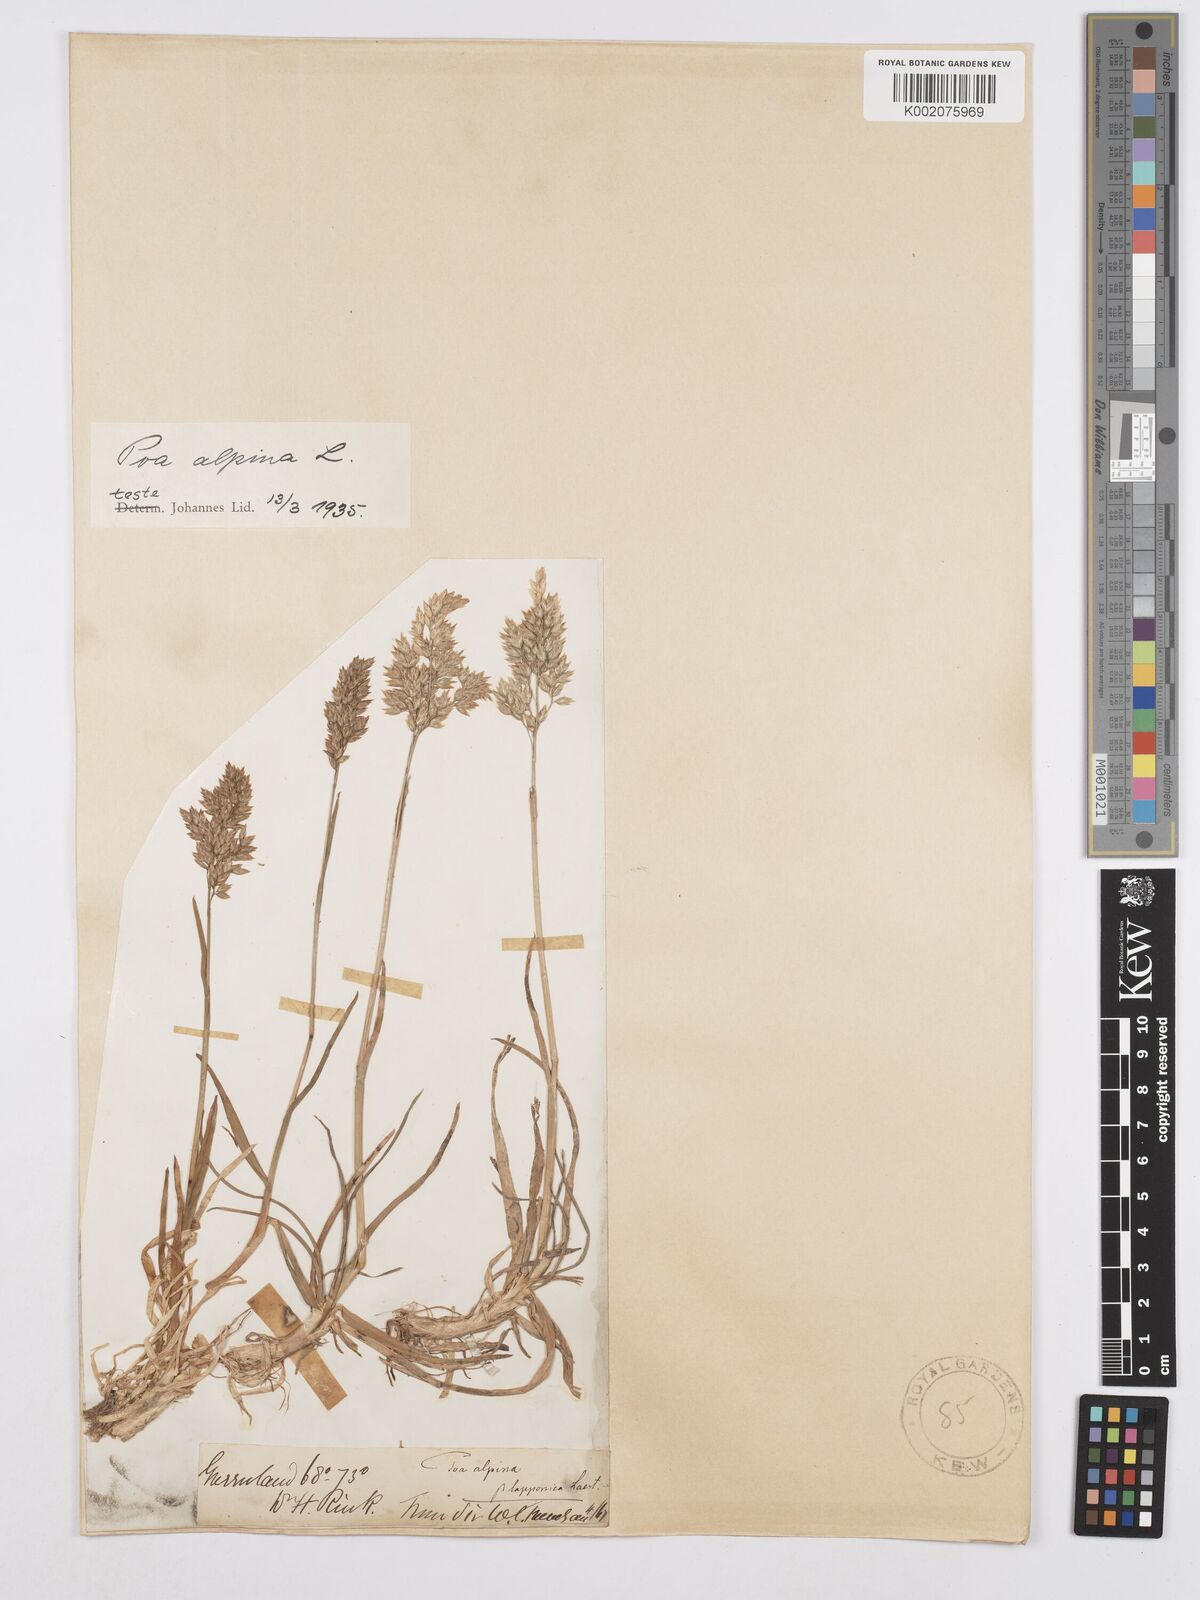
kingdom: Plantae
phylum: Tracheophyta
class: Liliopsida
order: Poales
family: Poaceae
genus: Poa
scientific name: Poa alpina
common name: Alpine bluegrass
